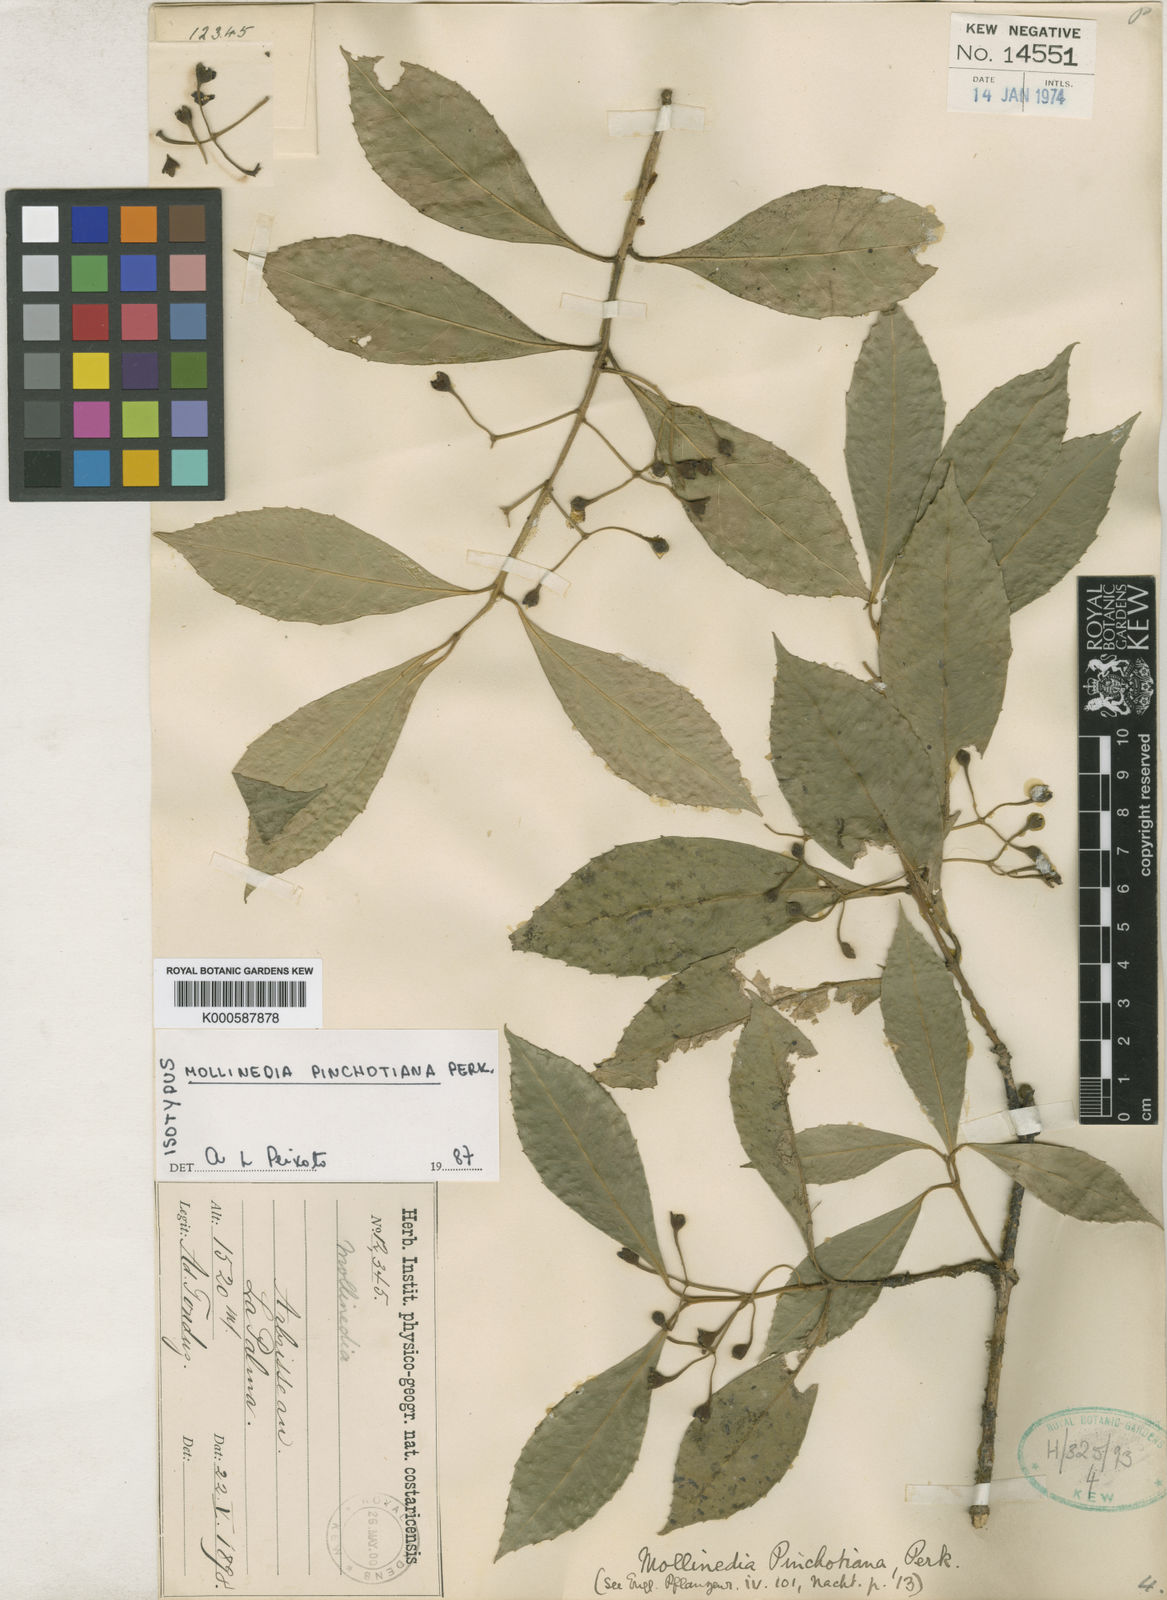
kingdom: Plantae
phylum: Tracheophyta
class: Magnoliopsida
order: Laurales
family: Monimiaceae
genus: Mollinedia
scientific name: Mollinedia viridiflora
